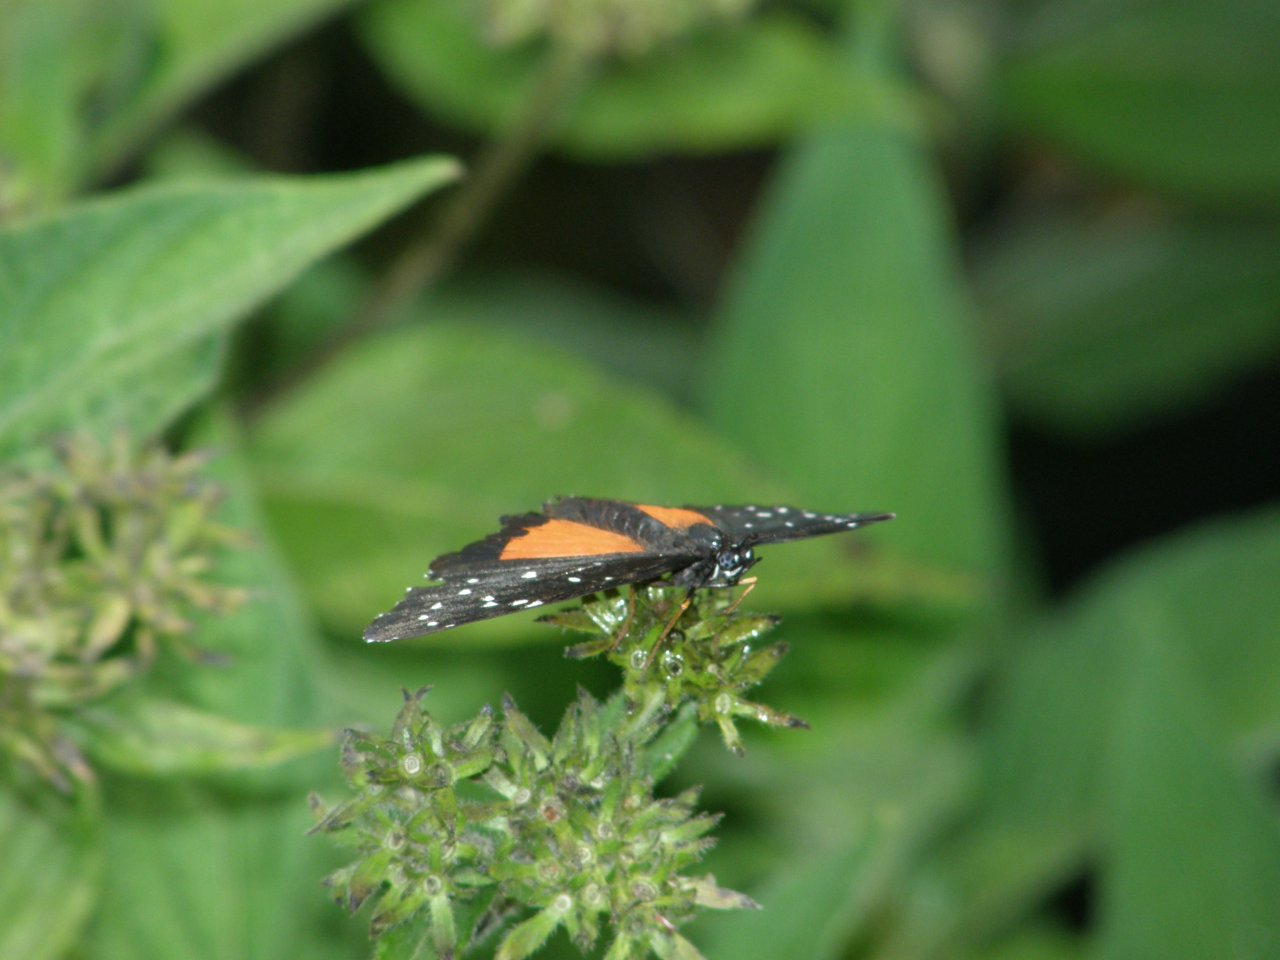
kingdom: Animalia
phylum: Arthropoda
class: Insecta
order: Lepidoptera
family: Nymphalidae
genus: Chlosyne
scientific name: Chlosyne janais
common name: Crimson Patch
